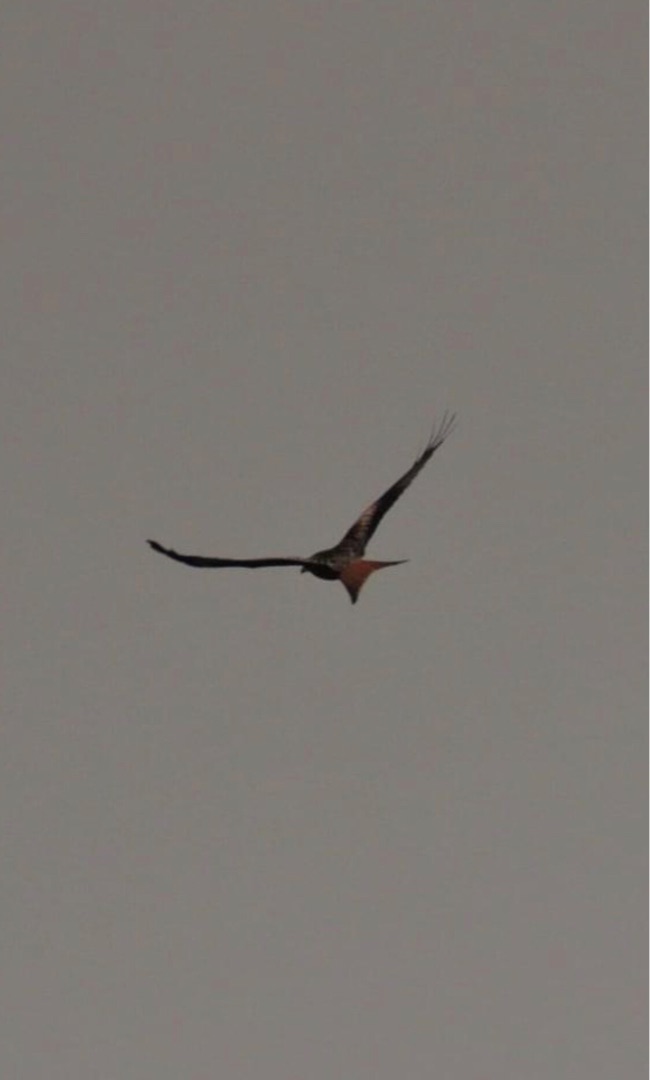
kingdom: Animalia
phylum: Chordata
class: Aves
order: Accipitriformes
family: Accipitridae
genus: Milvus
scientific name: Milvus milvus
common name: Rød glente
